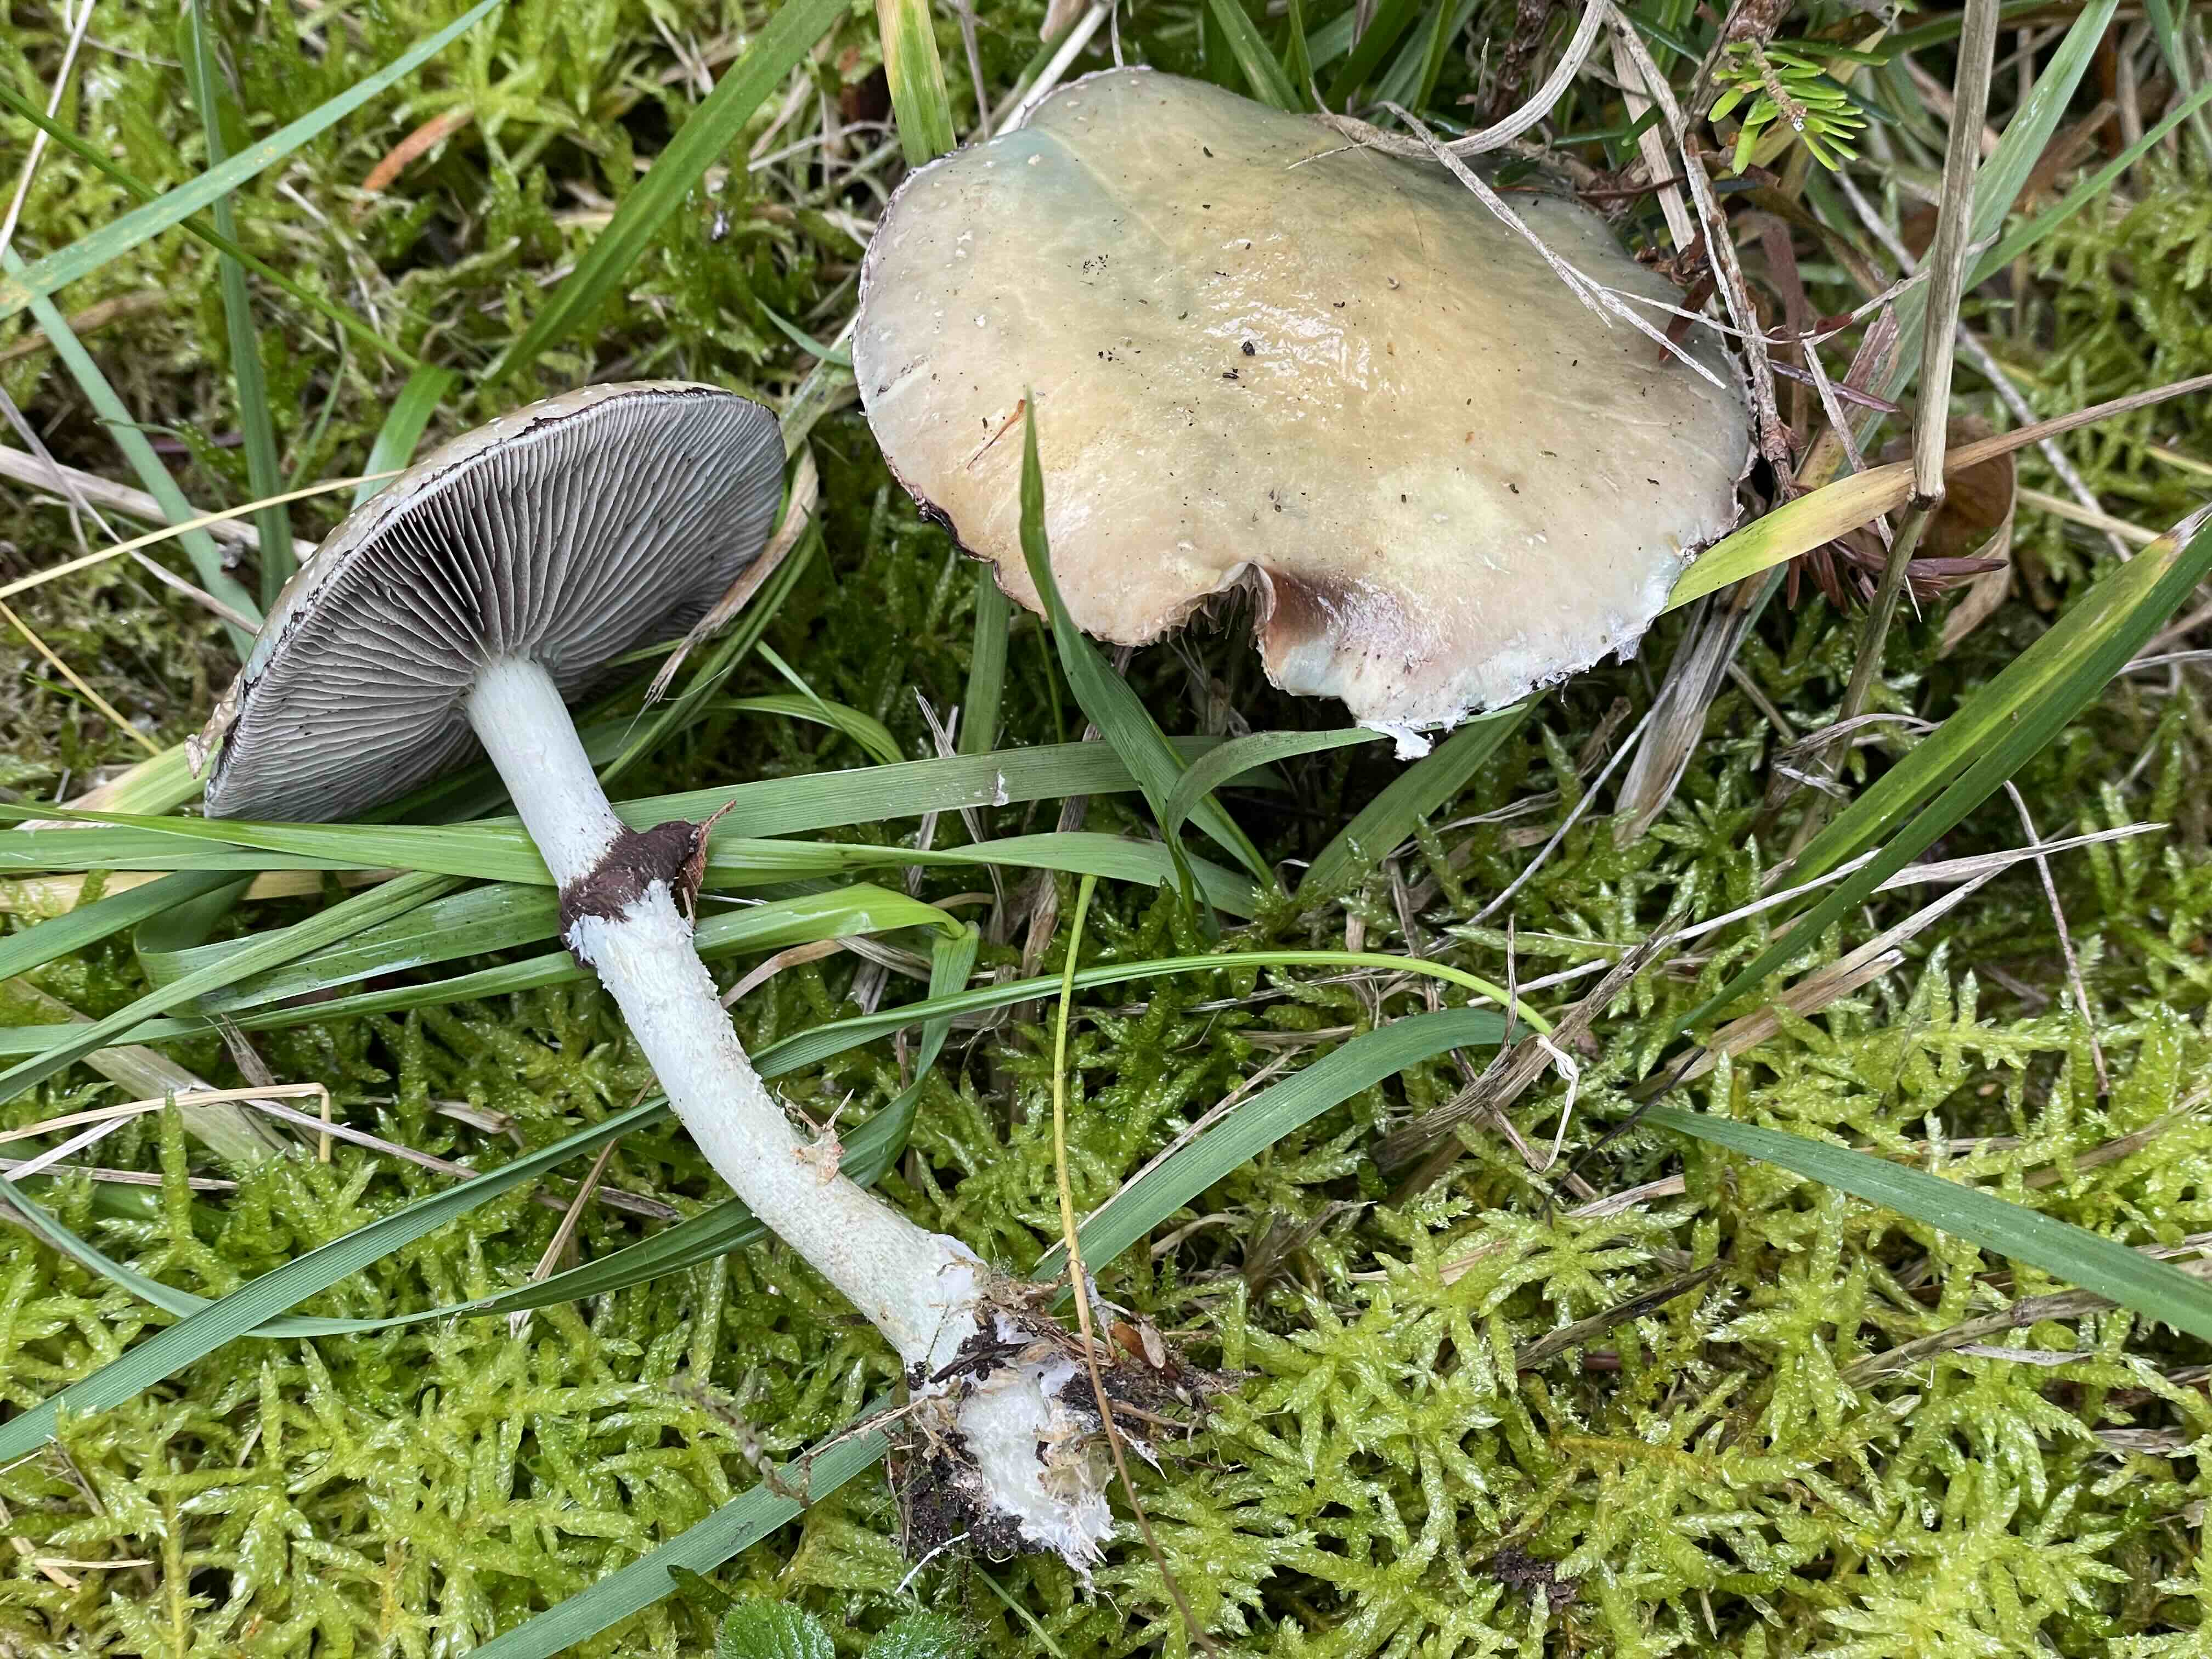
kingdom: Fungi
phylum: Basidiomycota
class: Agaricomycetes
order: Agaricales
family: Strophariaceae
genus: Stropharia
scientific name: Stropharia cyanea
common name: blågrøn bredblad
